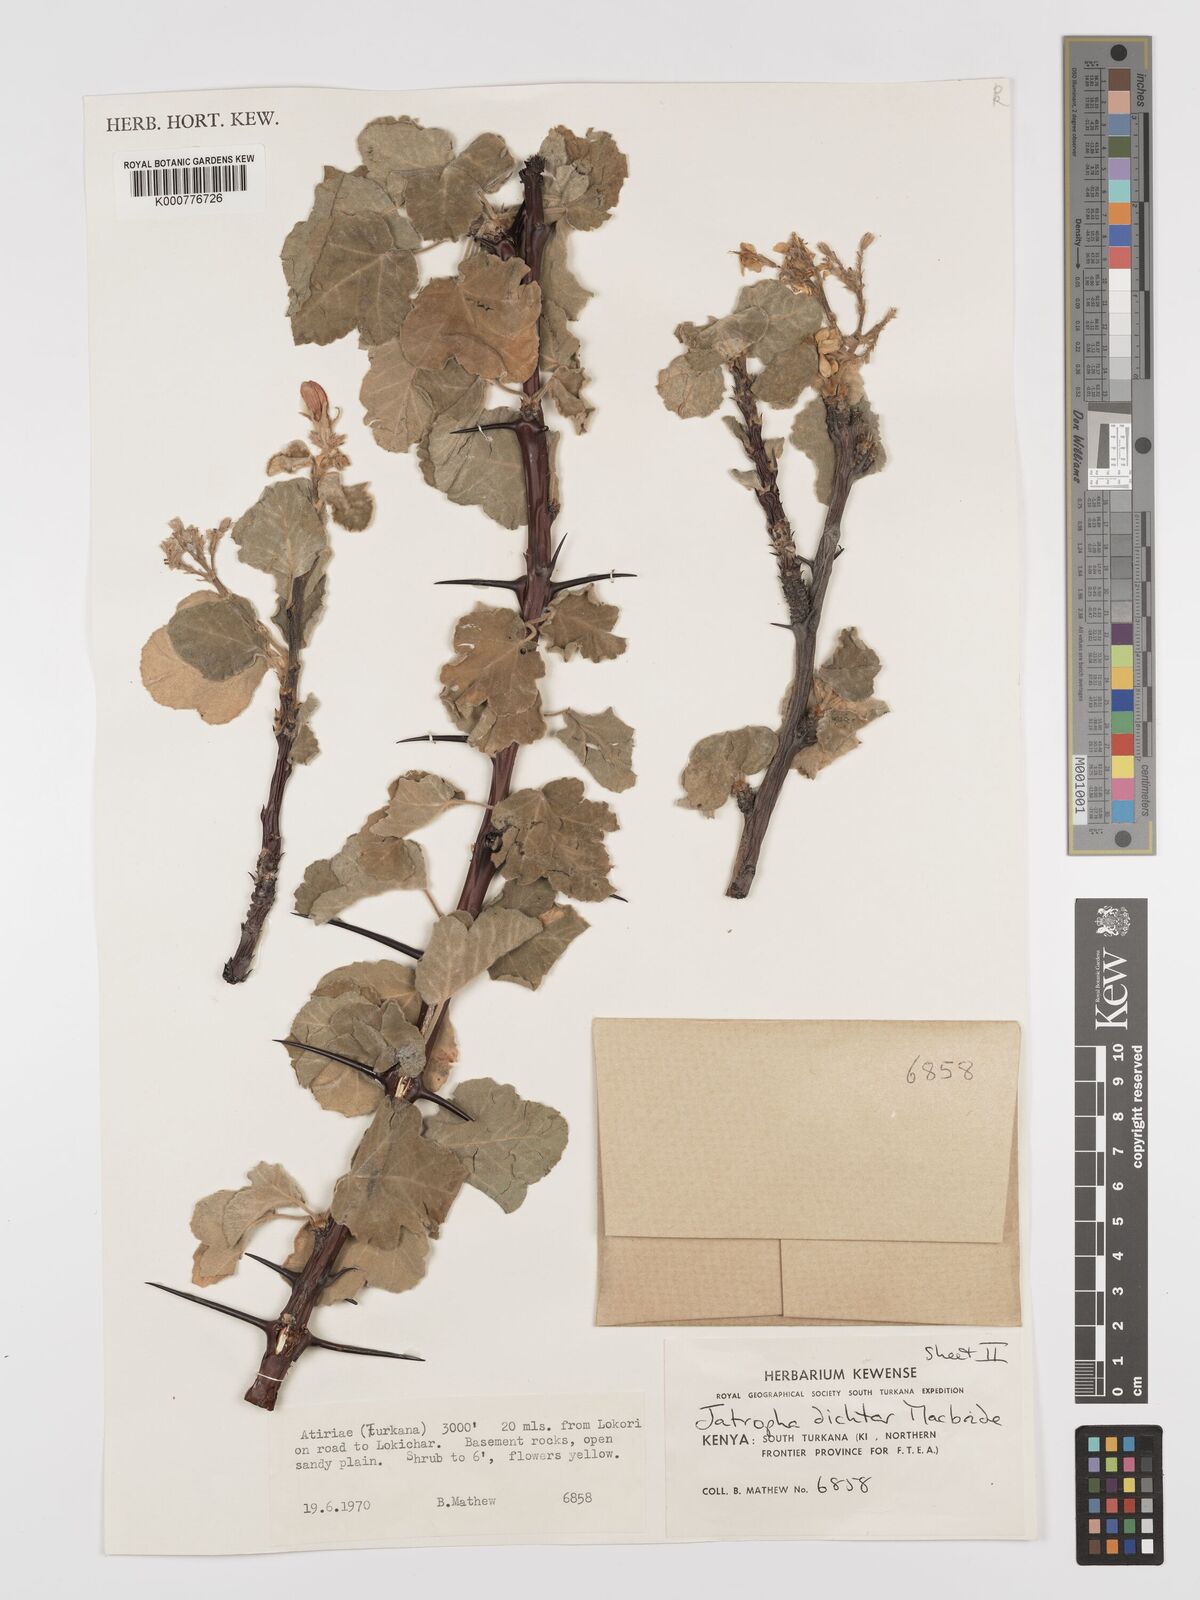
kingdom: Plantae
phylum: Tracheophyta
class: Magnoliopsida
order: Malpighiales
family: Euphorbiaceae
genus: Jatropha
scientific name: Jatropha dichtar
